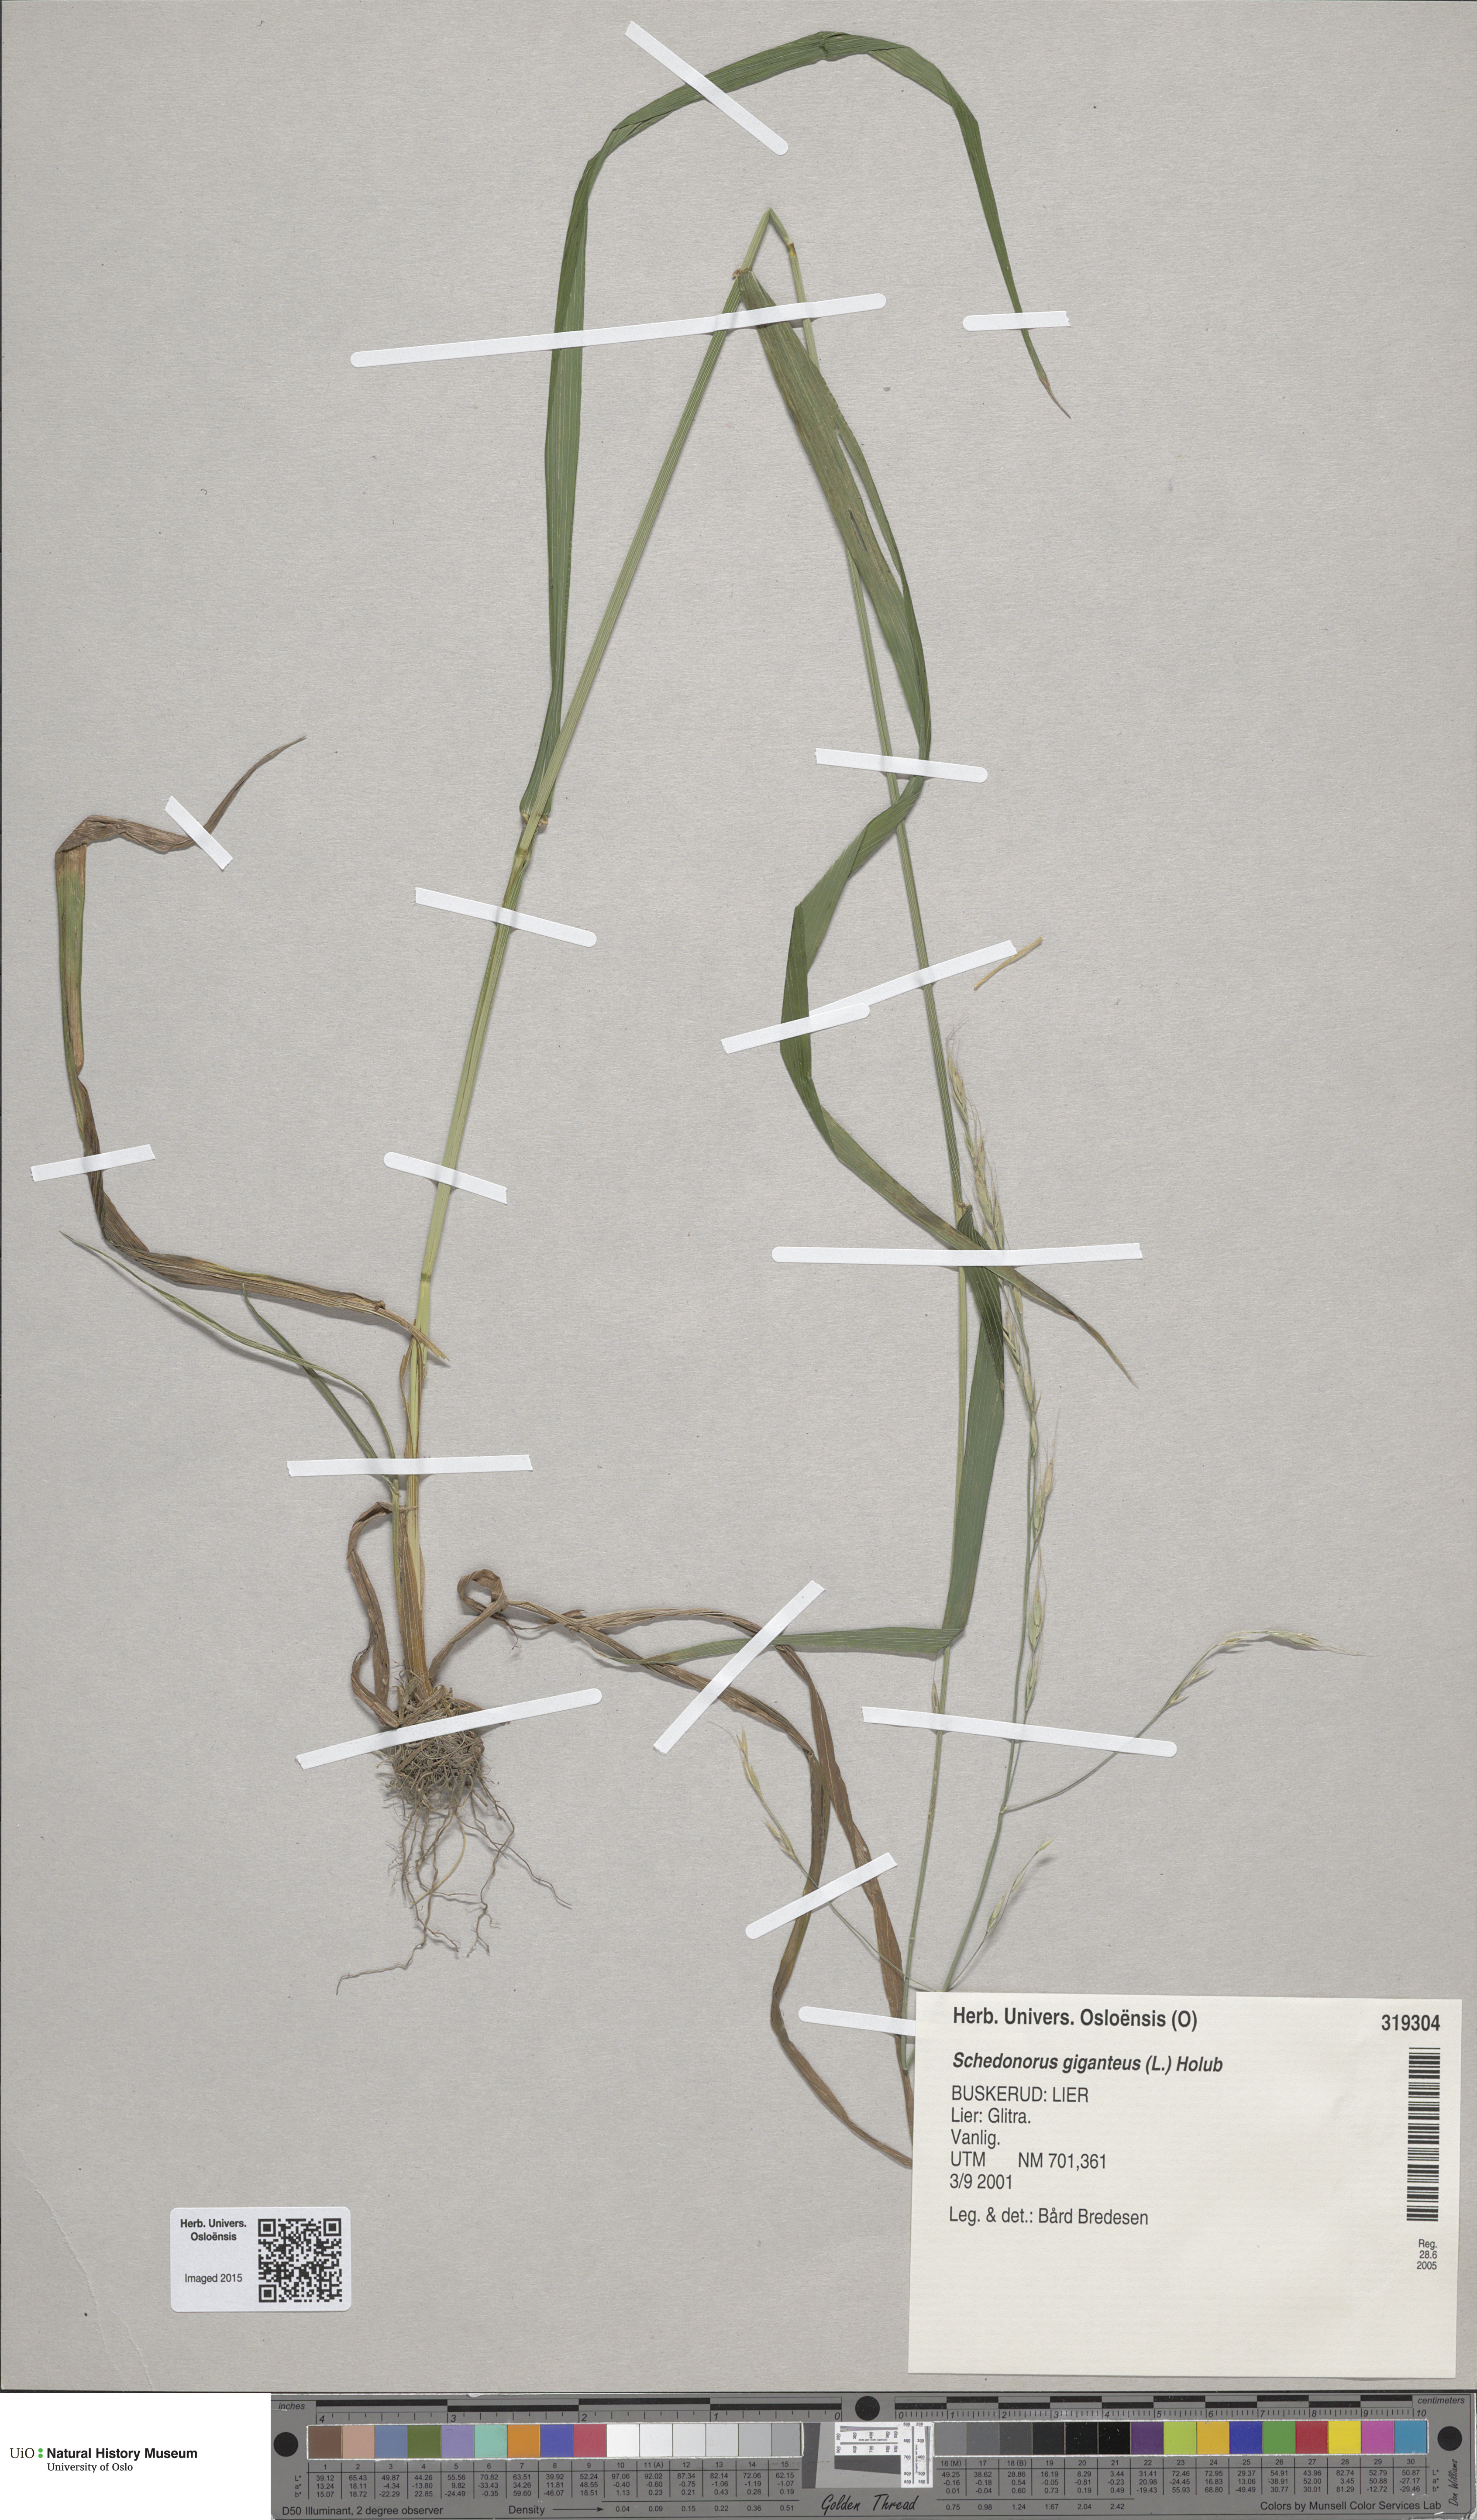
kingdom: Plantae
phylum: Tracheophyta
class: Liliopsida
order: Poales
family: Poaceae
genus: Lolium
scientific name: Lolium giganteum
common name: Giant fescue
